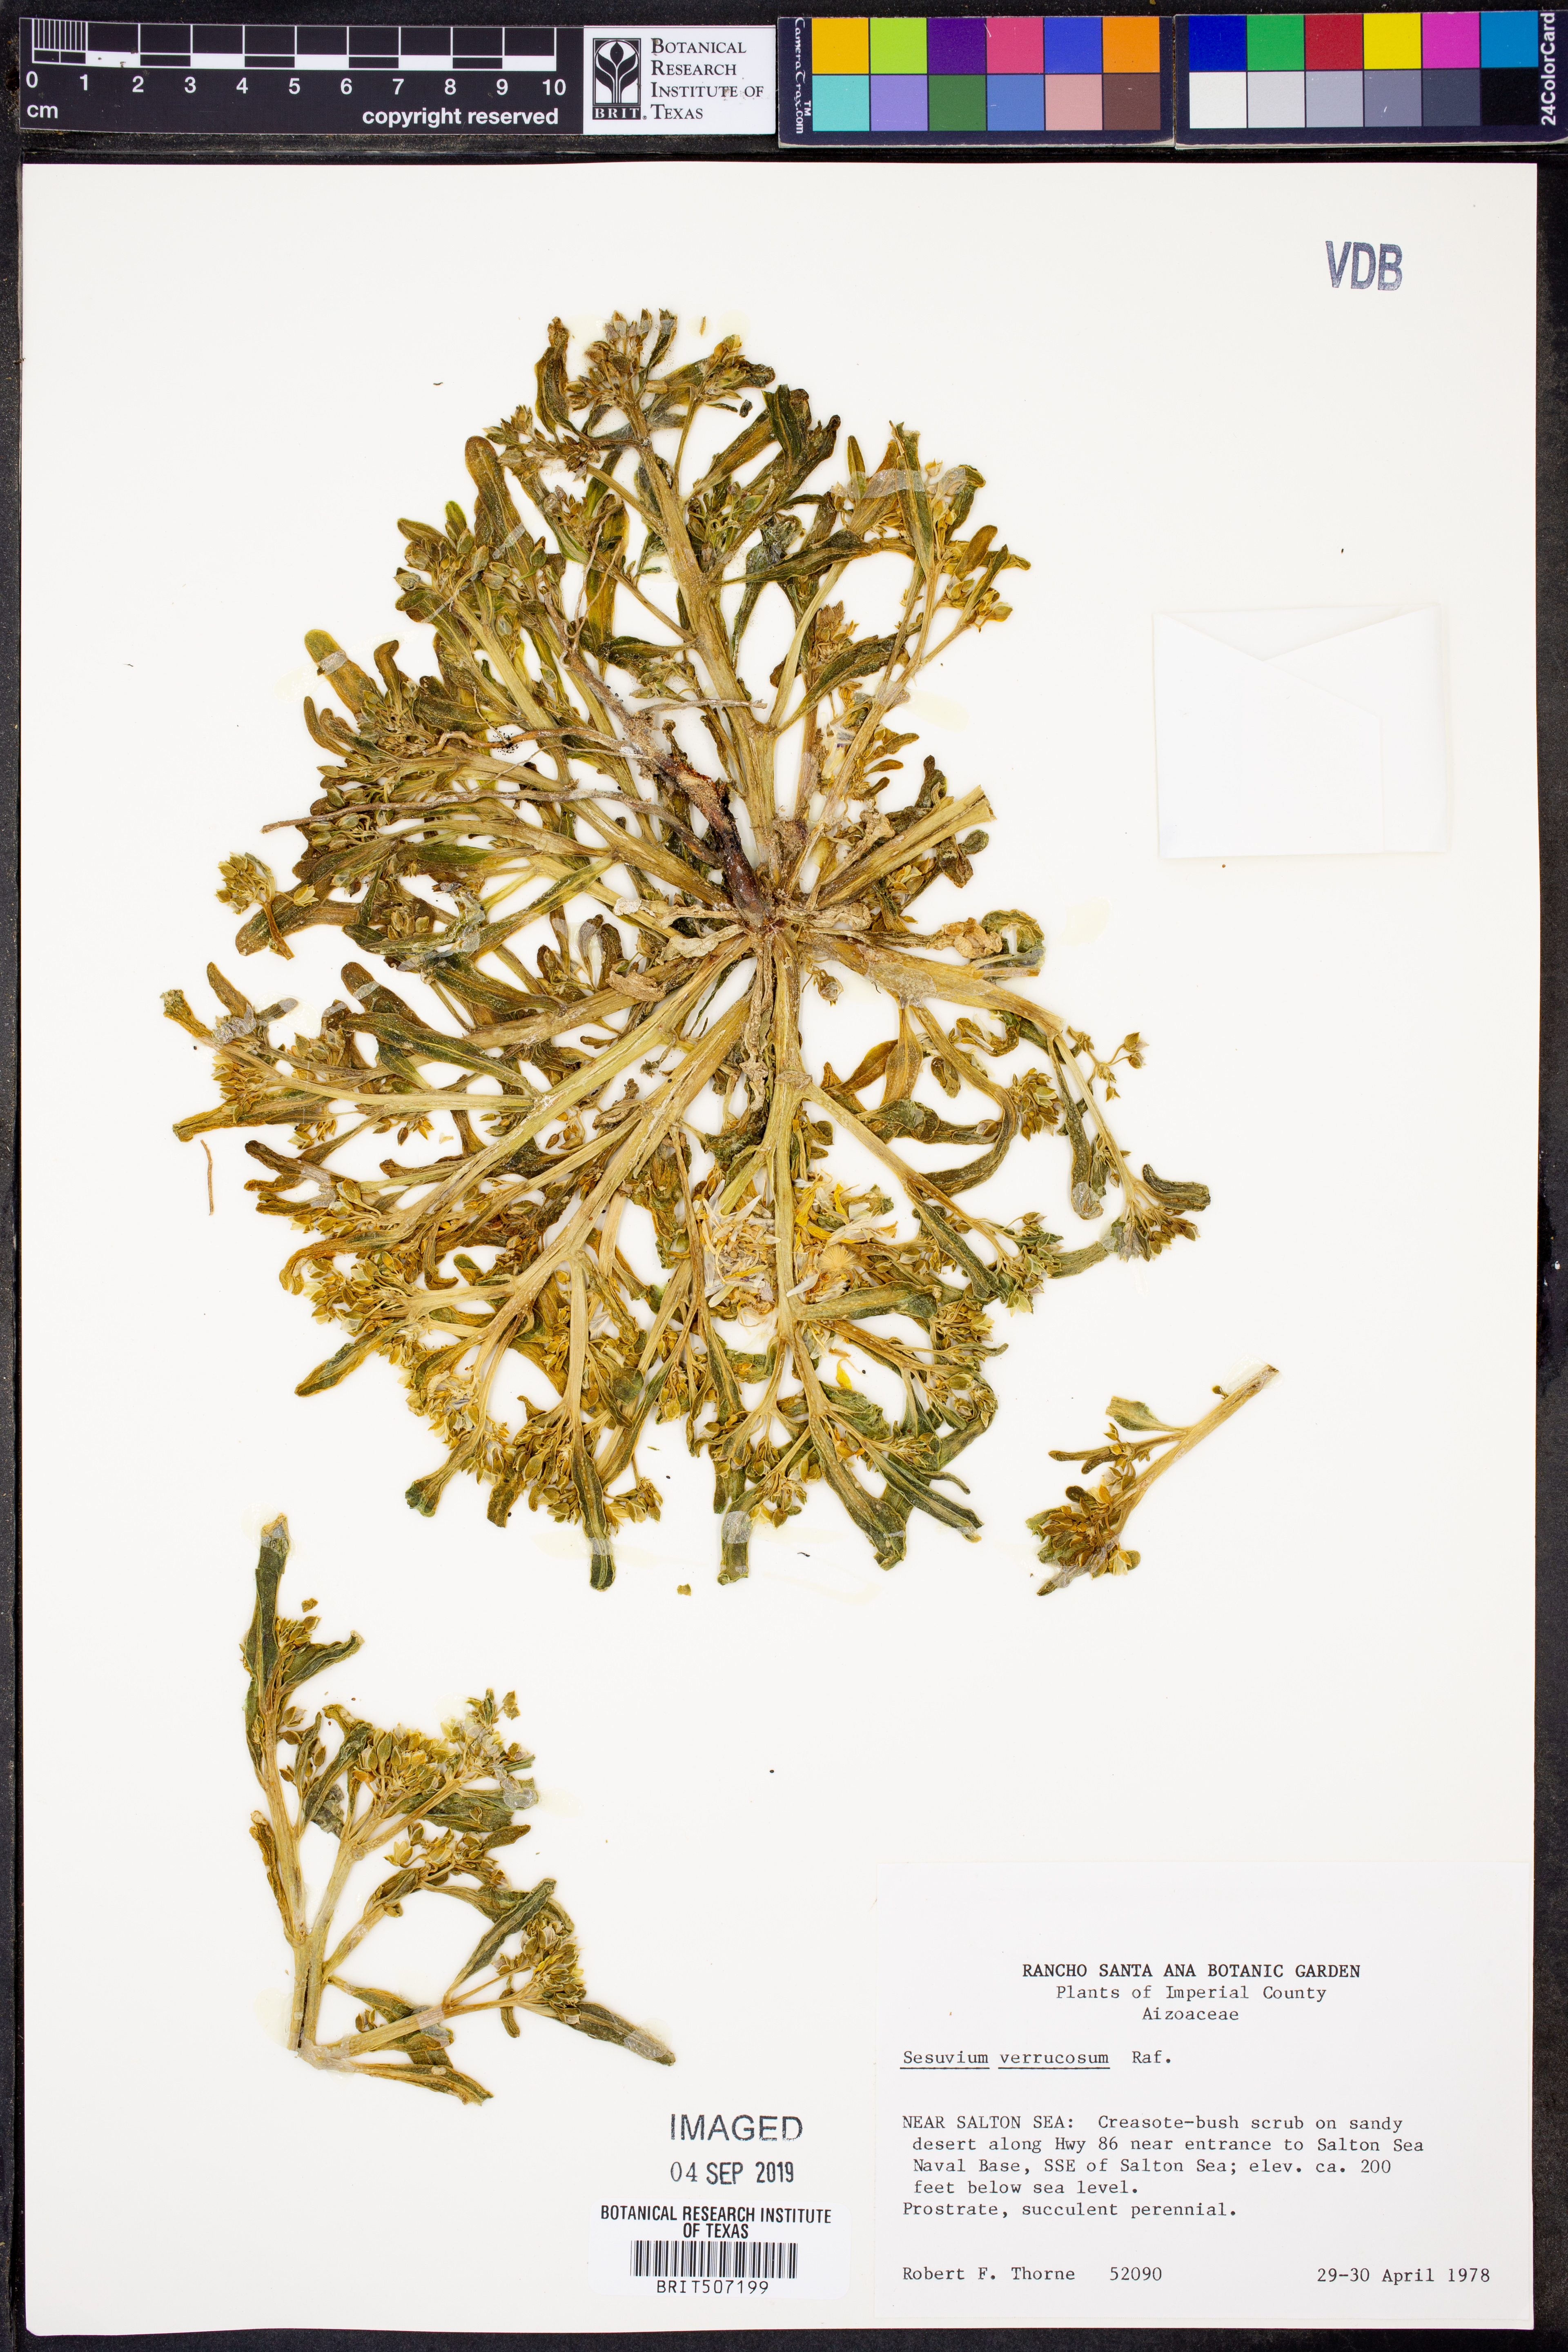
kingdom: Plantae
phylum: Tracheophyta
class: Magnoliopsida
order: Caryophyllales
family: Aizoaceae
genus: Sesuvium
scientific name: Sesuvium revolutifolium
